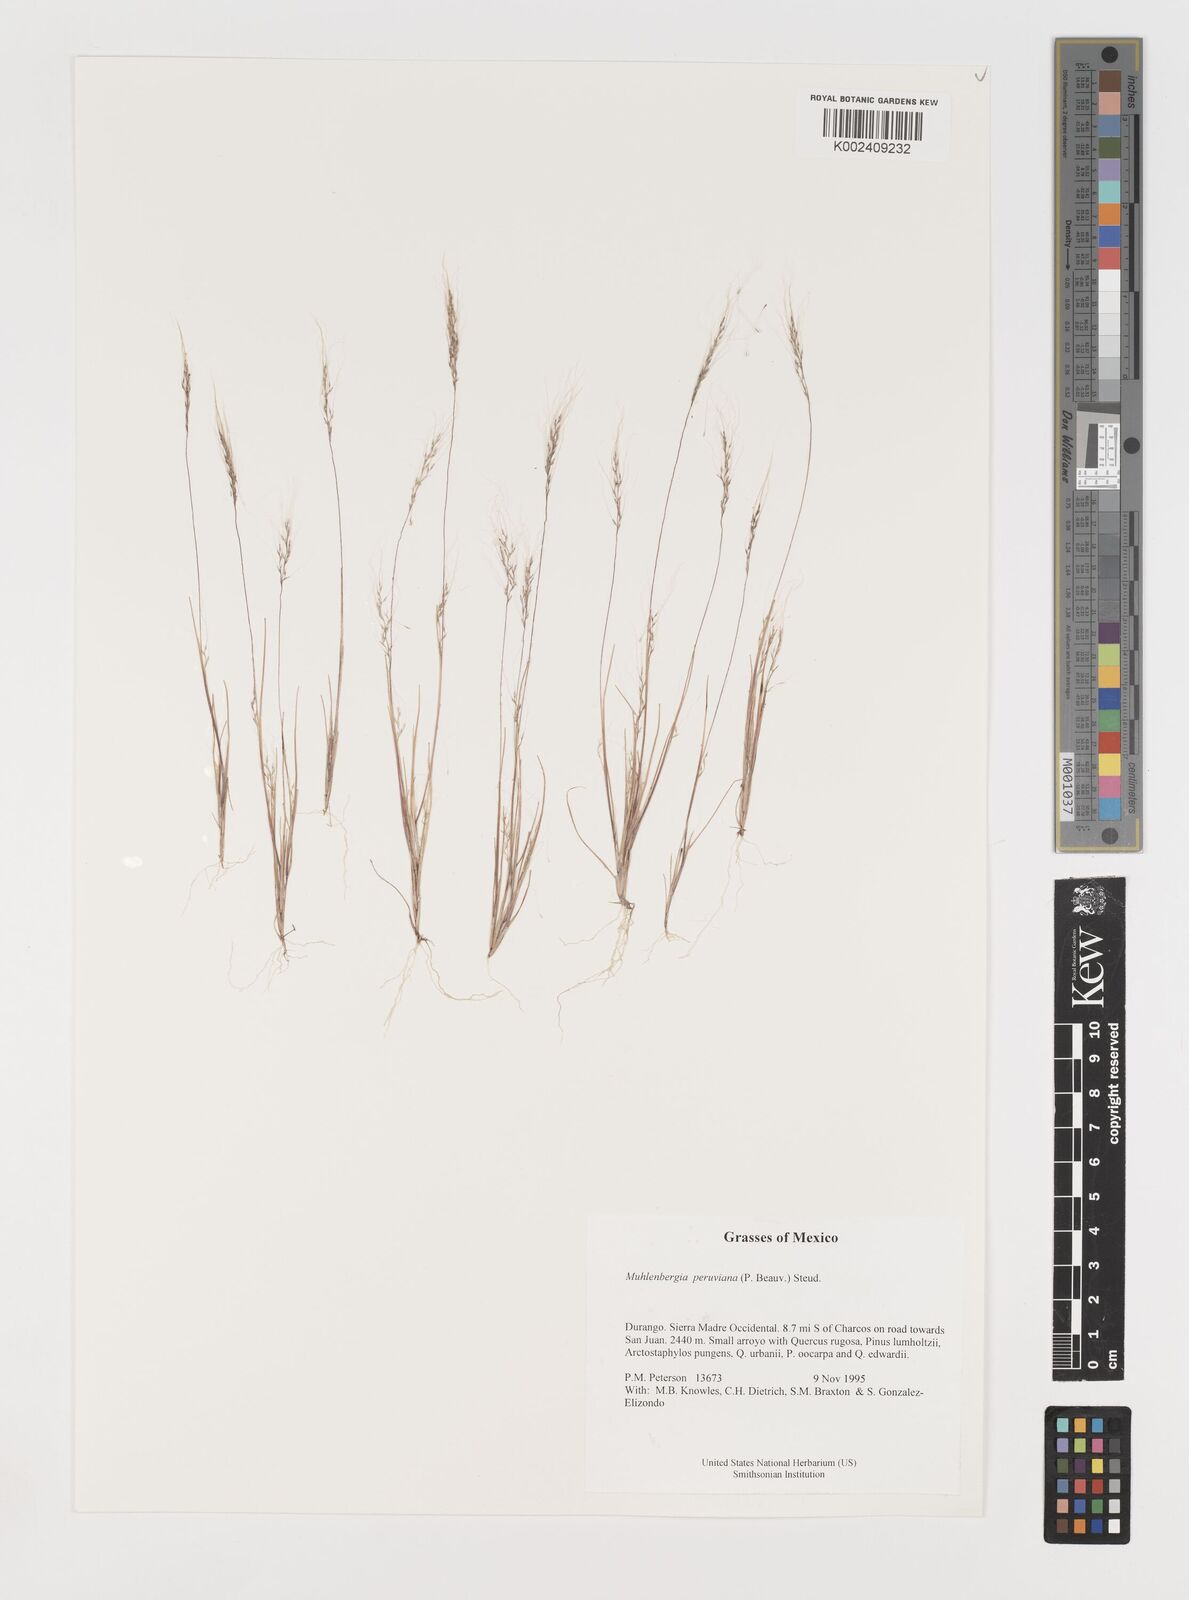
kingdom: Plantae
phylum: Tracheophyta
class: Liliopsida
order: Poales
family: Poaceae
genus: Muhlenbergia
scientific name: Muhlenbergia peruviana
